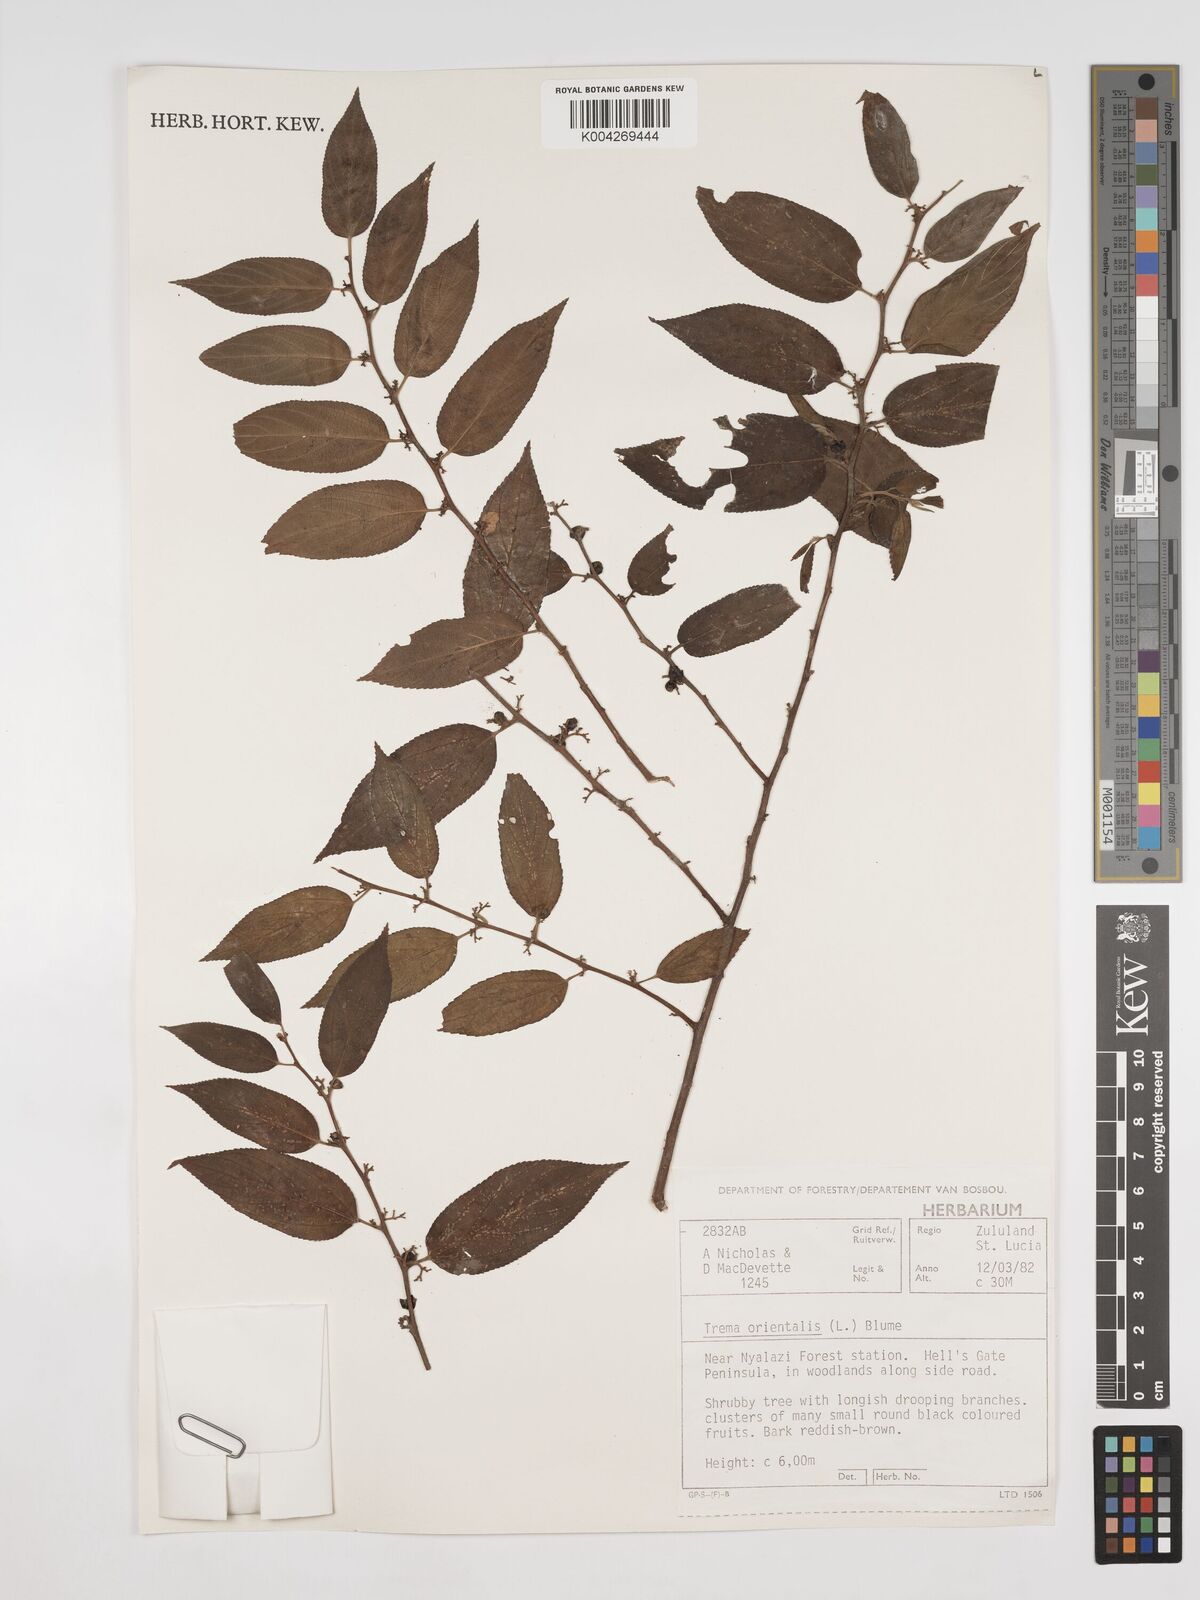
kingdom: Plantae
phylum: Tracheophyta
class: Magnoliopsida
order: Rosales
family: Cannabaceae
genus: Trema
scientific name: Trema orientale
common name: Indian charcoal tree
